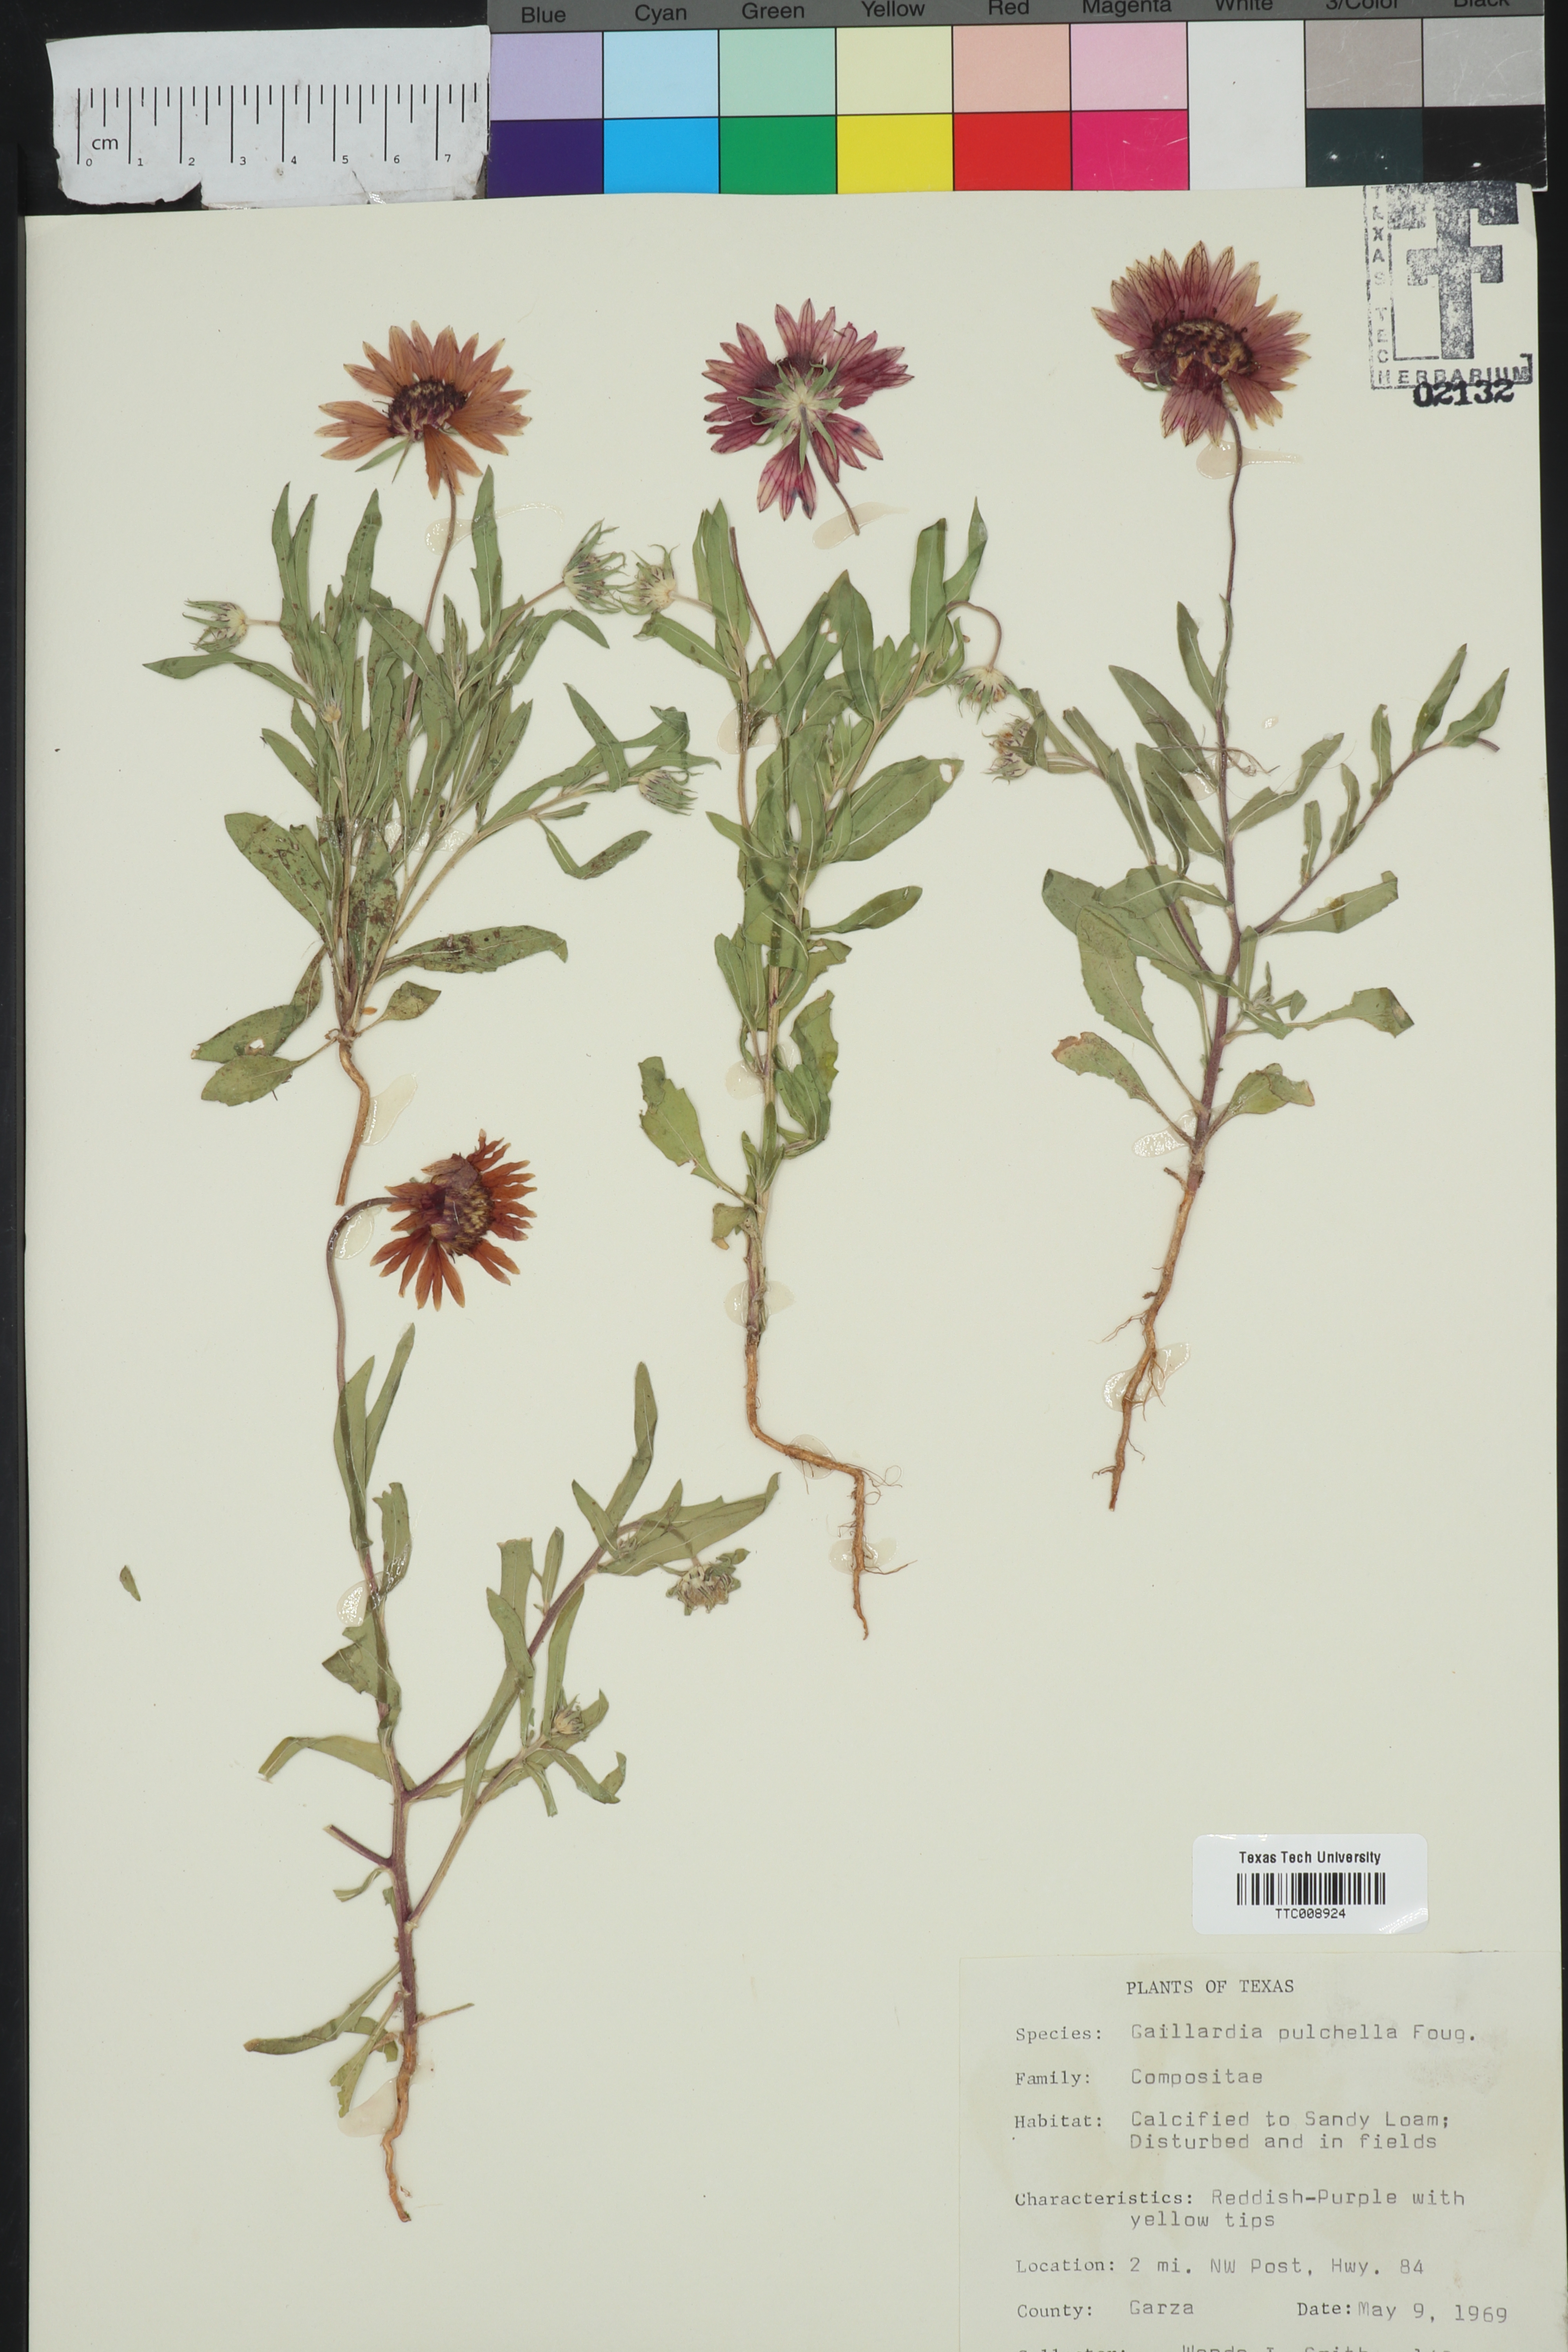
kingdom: Plantae
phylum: Tracheophyta
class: Magnoliopsida
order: Asterales
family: Asteraceae
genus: Gaillardia
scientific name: Gaillardia pulchella
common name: Firewheel
